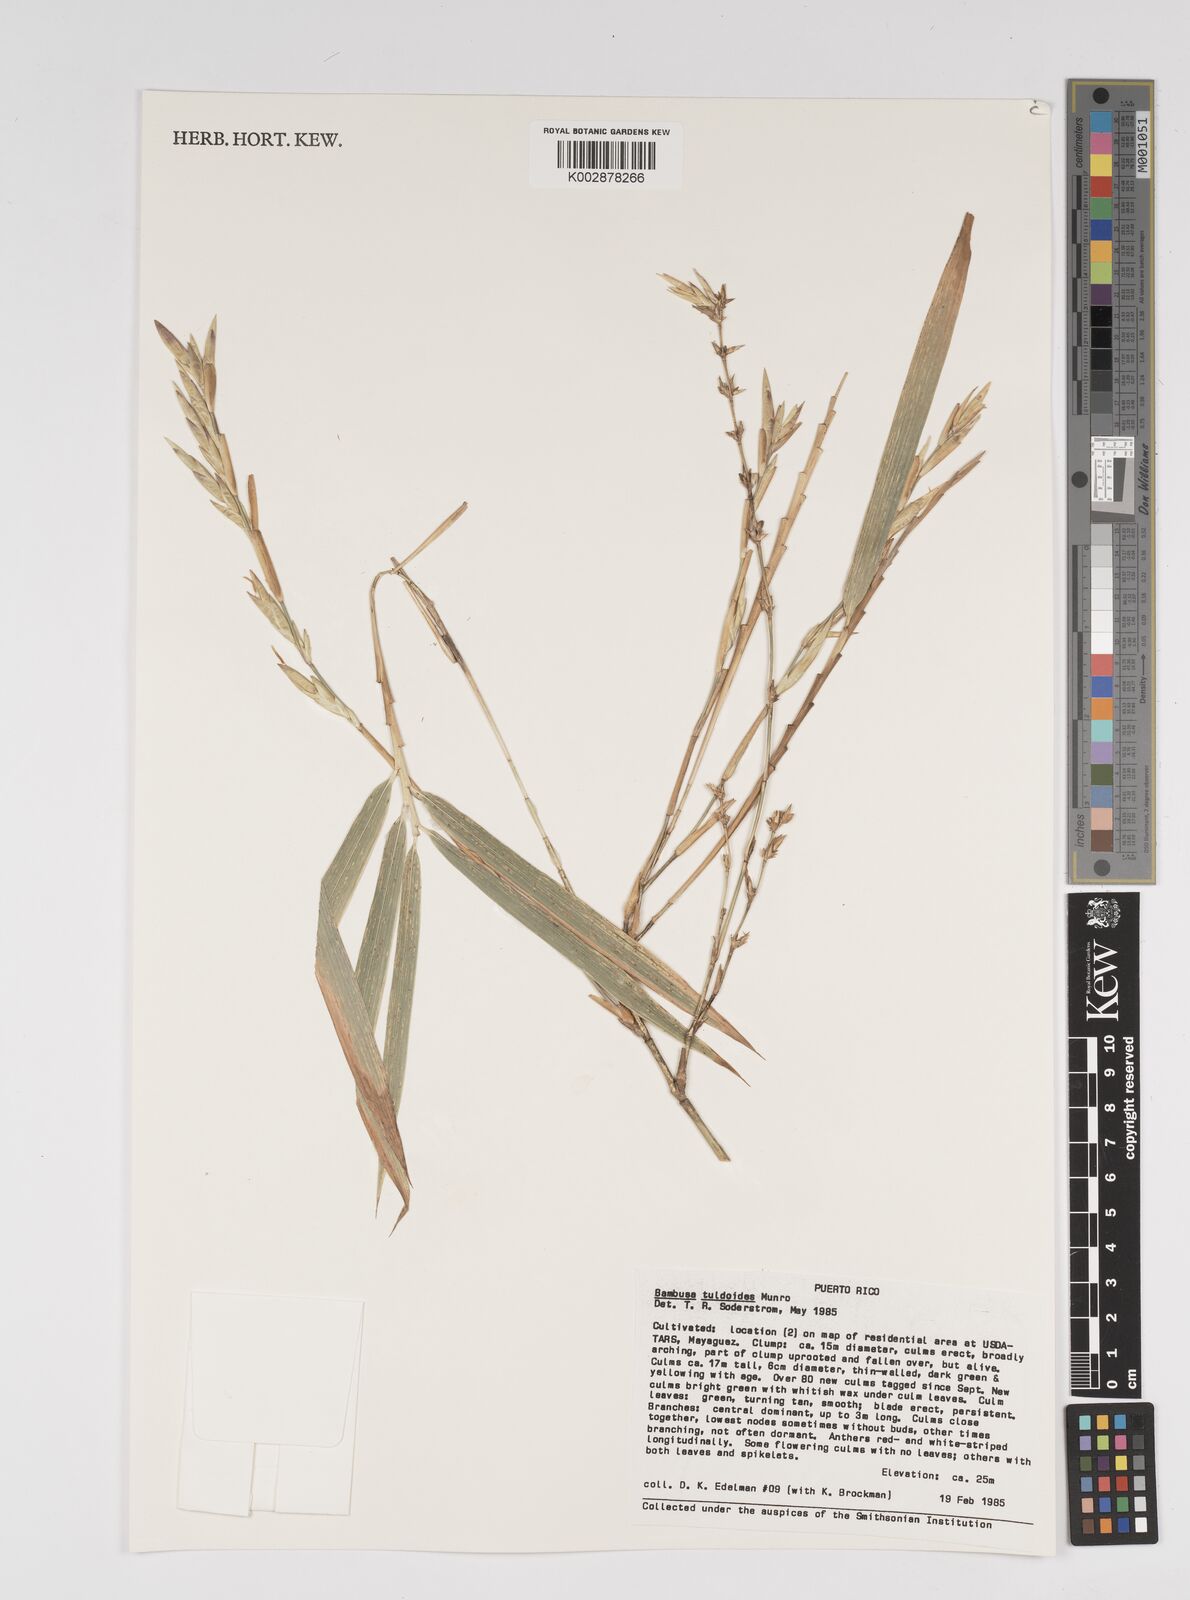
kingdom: Plantae
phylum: Tracheophyta
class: Liliopsida
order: Poales
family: Poaceae
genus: Bambusa
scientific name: Bambusa tuldoides
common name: Verdant bamboo
